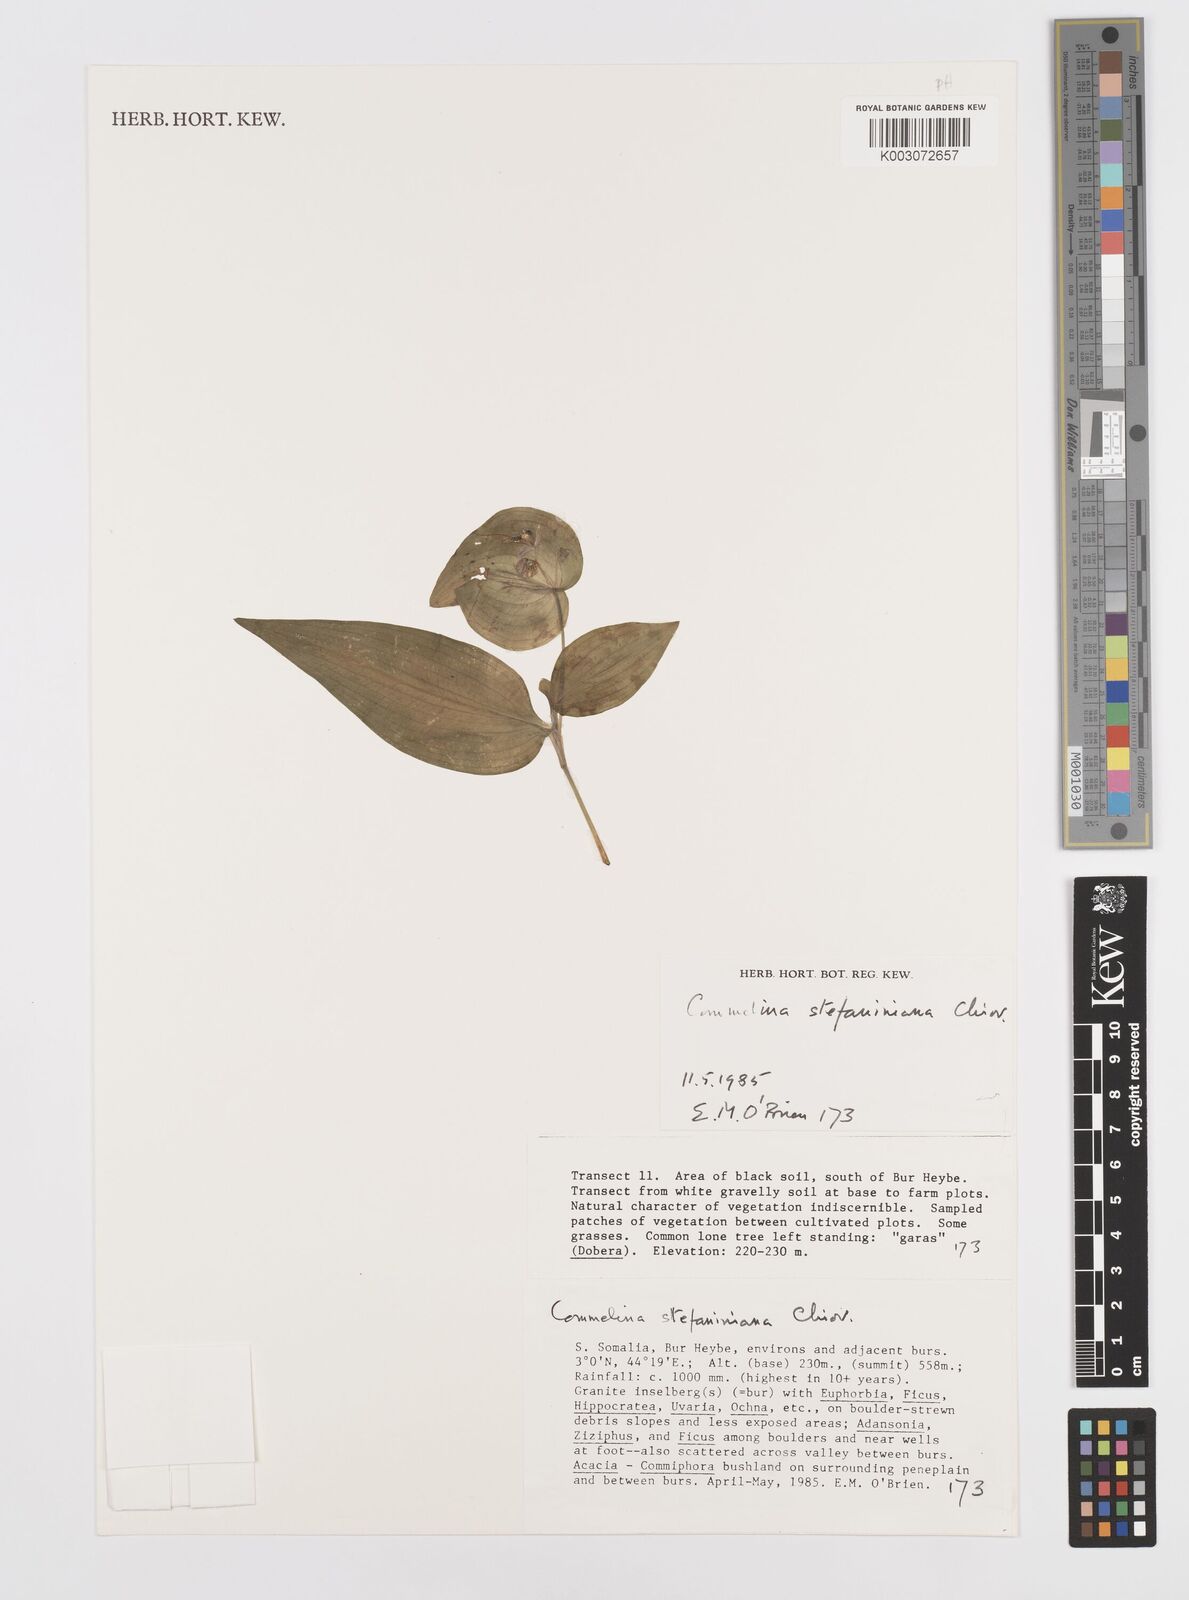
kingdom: Plantae
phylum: Tracheophyta
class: Liliopsida
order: Commelinales
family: Commelinaceae
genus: Commelina
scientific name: Commelina stefaniniana
